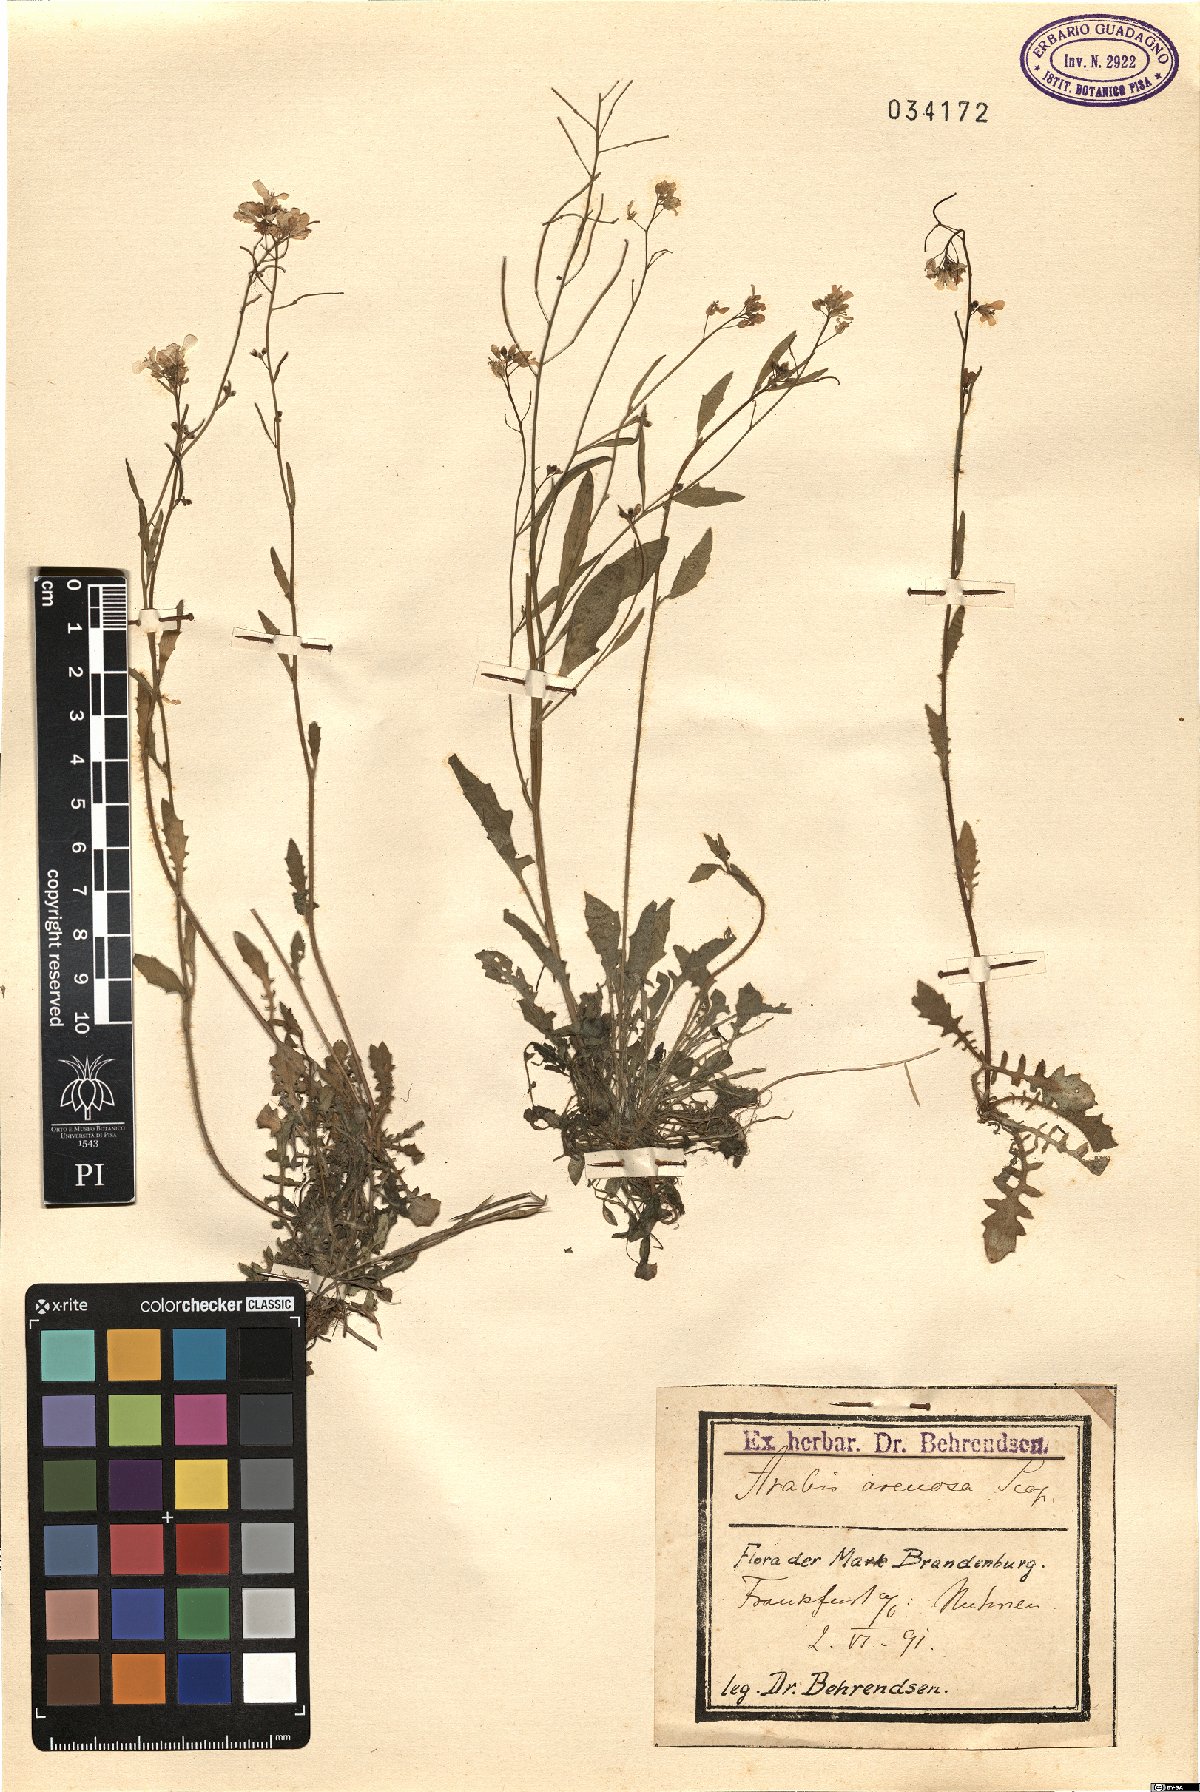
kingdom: Plantae
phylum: Tracheophyta
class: Magnoliopsida
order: Brassicales
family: Brassicaceae
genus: Arabidopsis
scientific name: Arabidopsis arenosa
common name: Sand rock-cress
